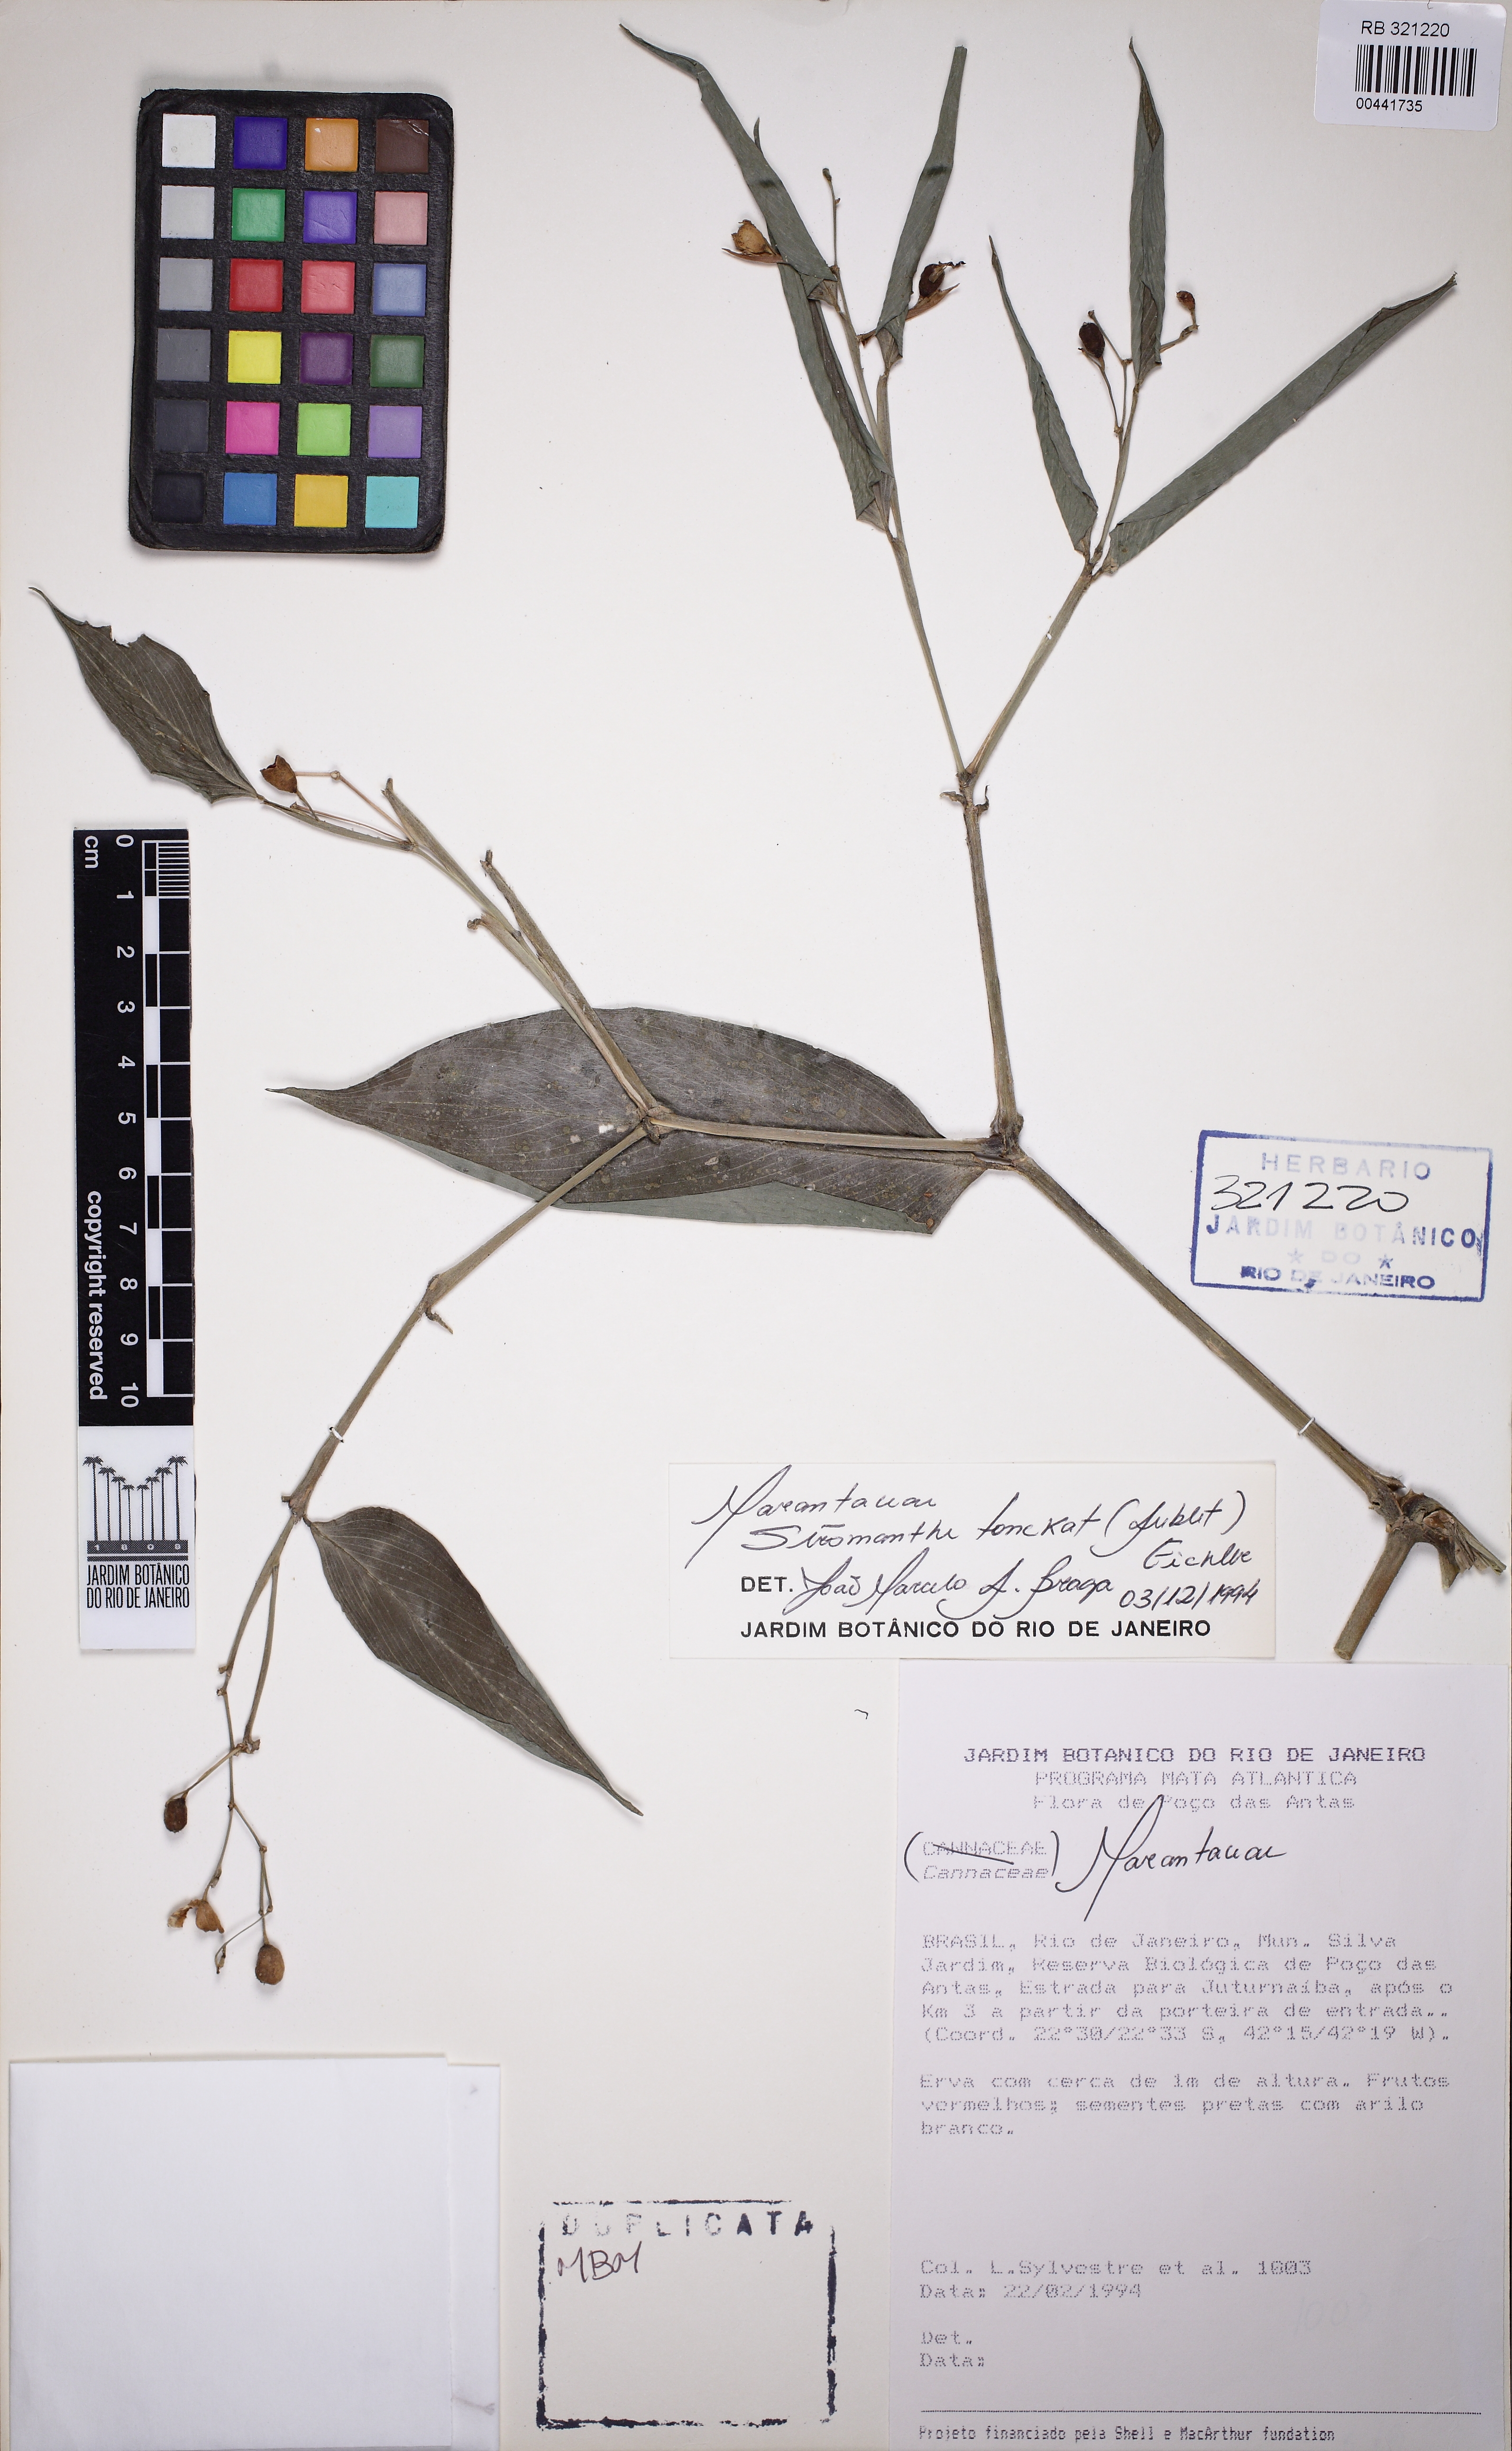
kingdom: Plantae
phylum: Tracheophyta
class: Liliopsida
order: Zingiberales
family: Marantaceae
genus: Stromanthe
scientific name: Stromanthe tonckat
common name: Stromanthe
